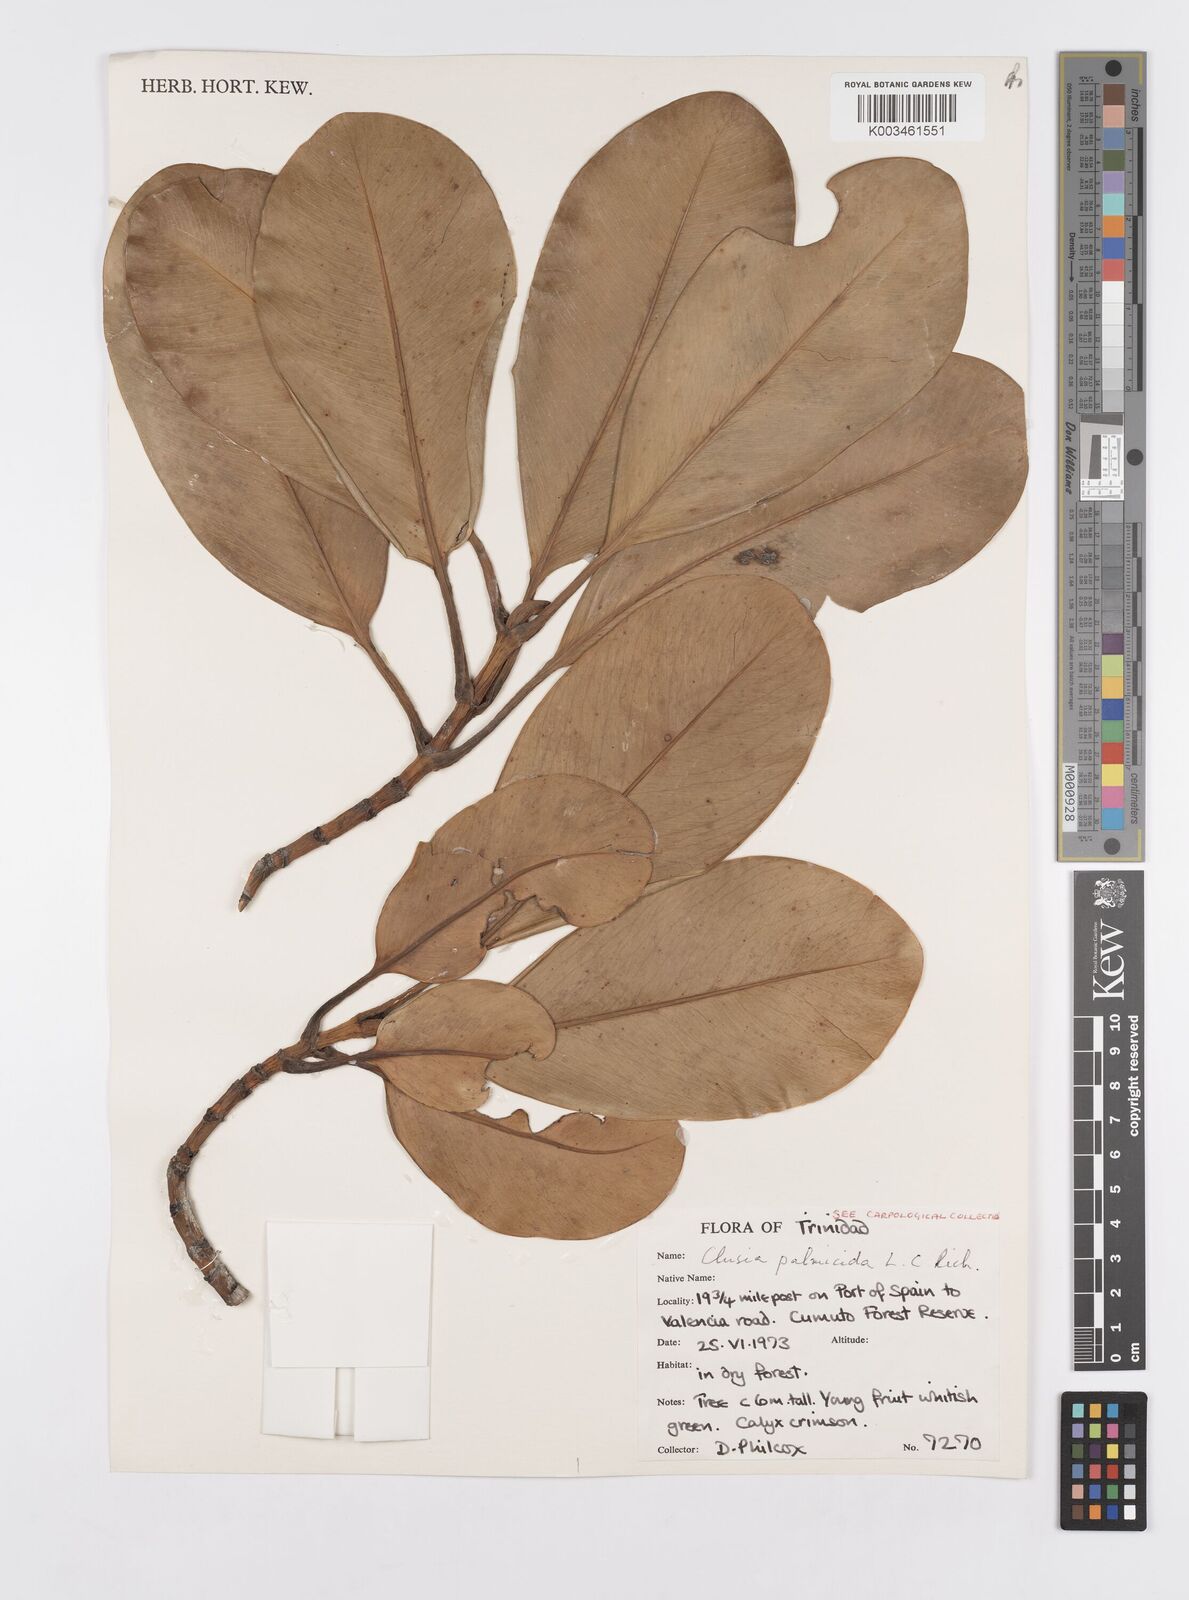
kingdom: Plantae
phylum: Tracheophyta
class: Magnoliopsida
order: Malpighiales
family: Clusiaceae
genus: Clusia
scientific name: Clusia palmicida
